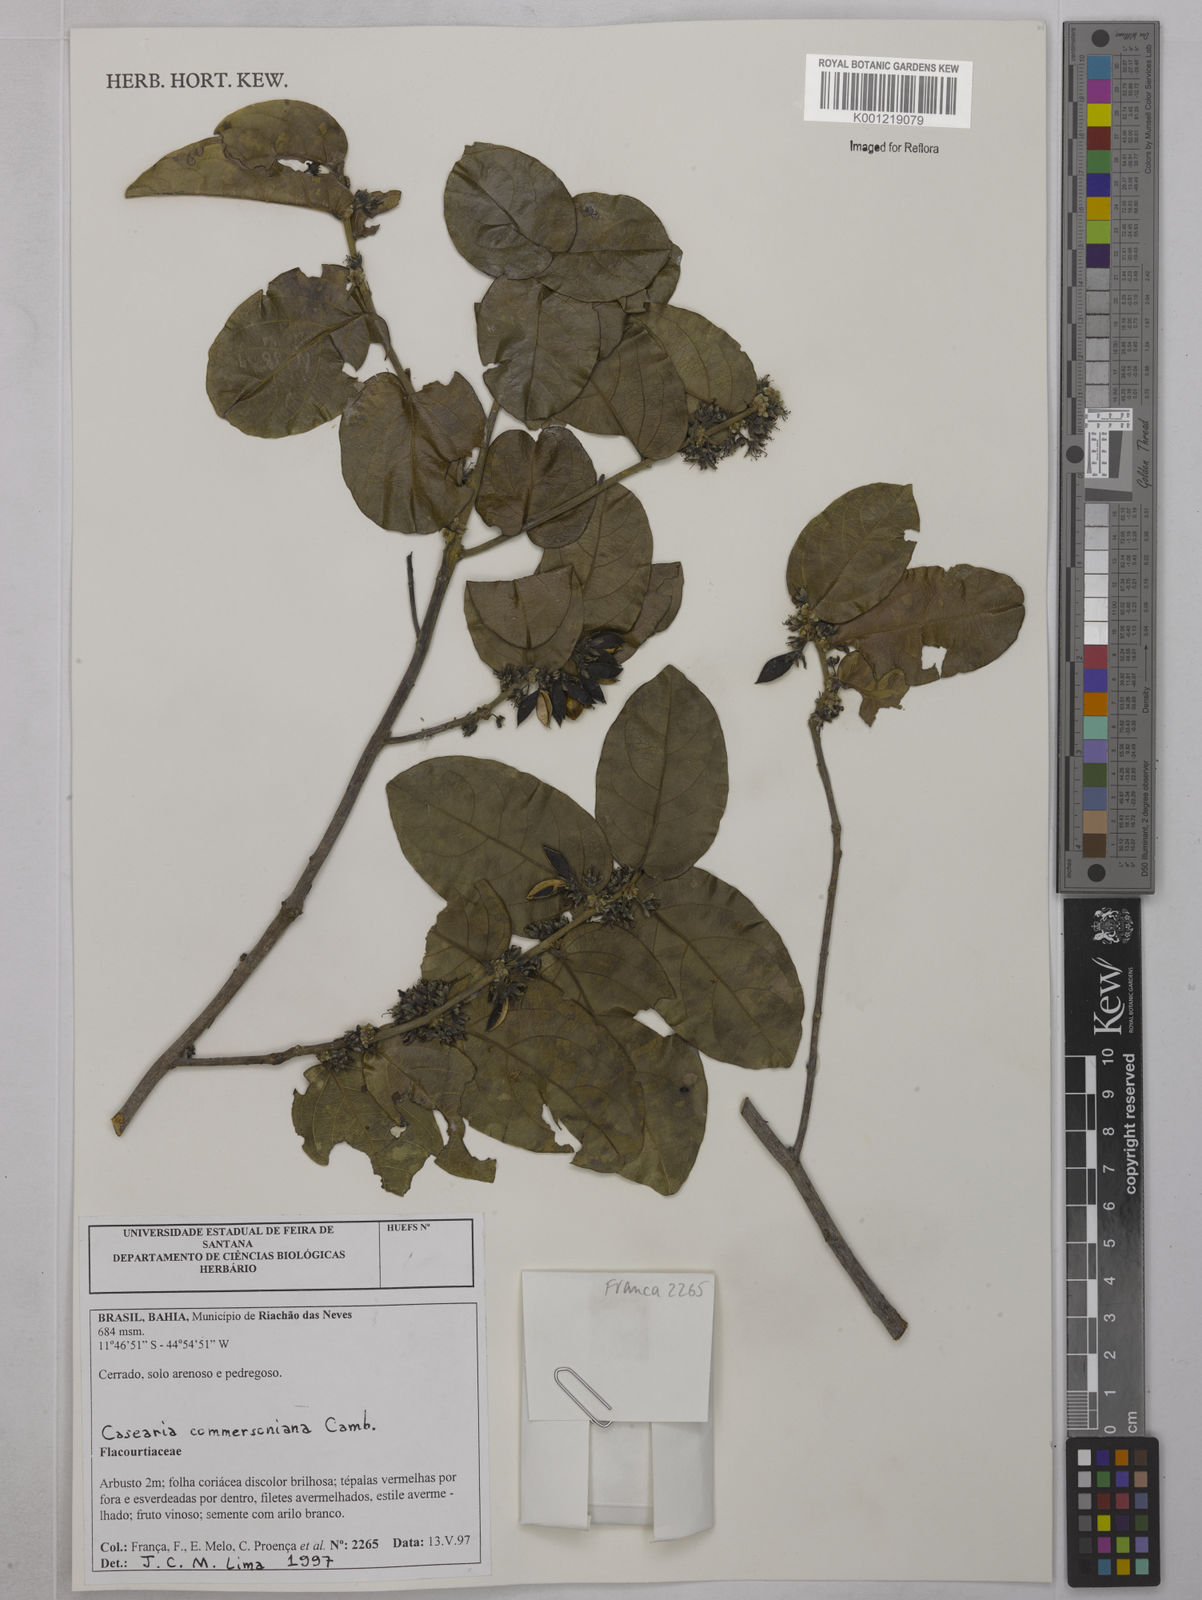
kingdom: Plantae
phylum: Tracheophyta
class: Magnoliopsida
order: Malpighiales
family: Salicaceae
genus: Piparea
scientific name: Piparea dentata
